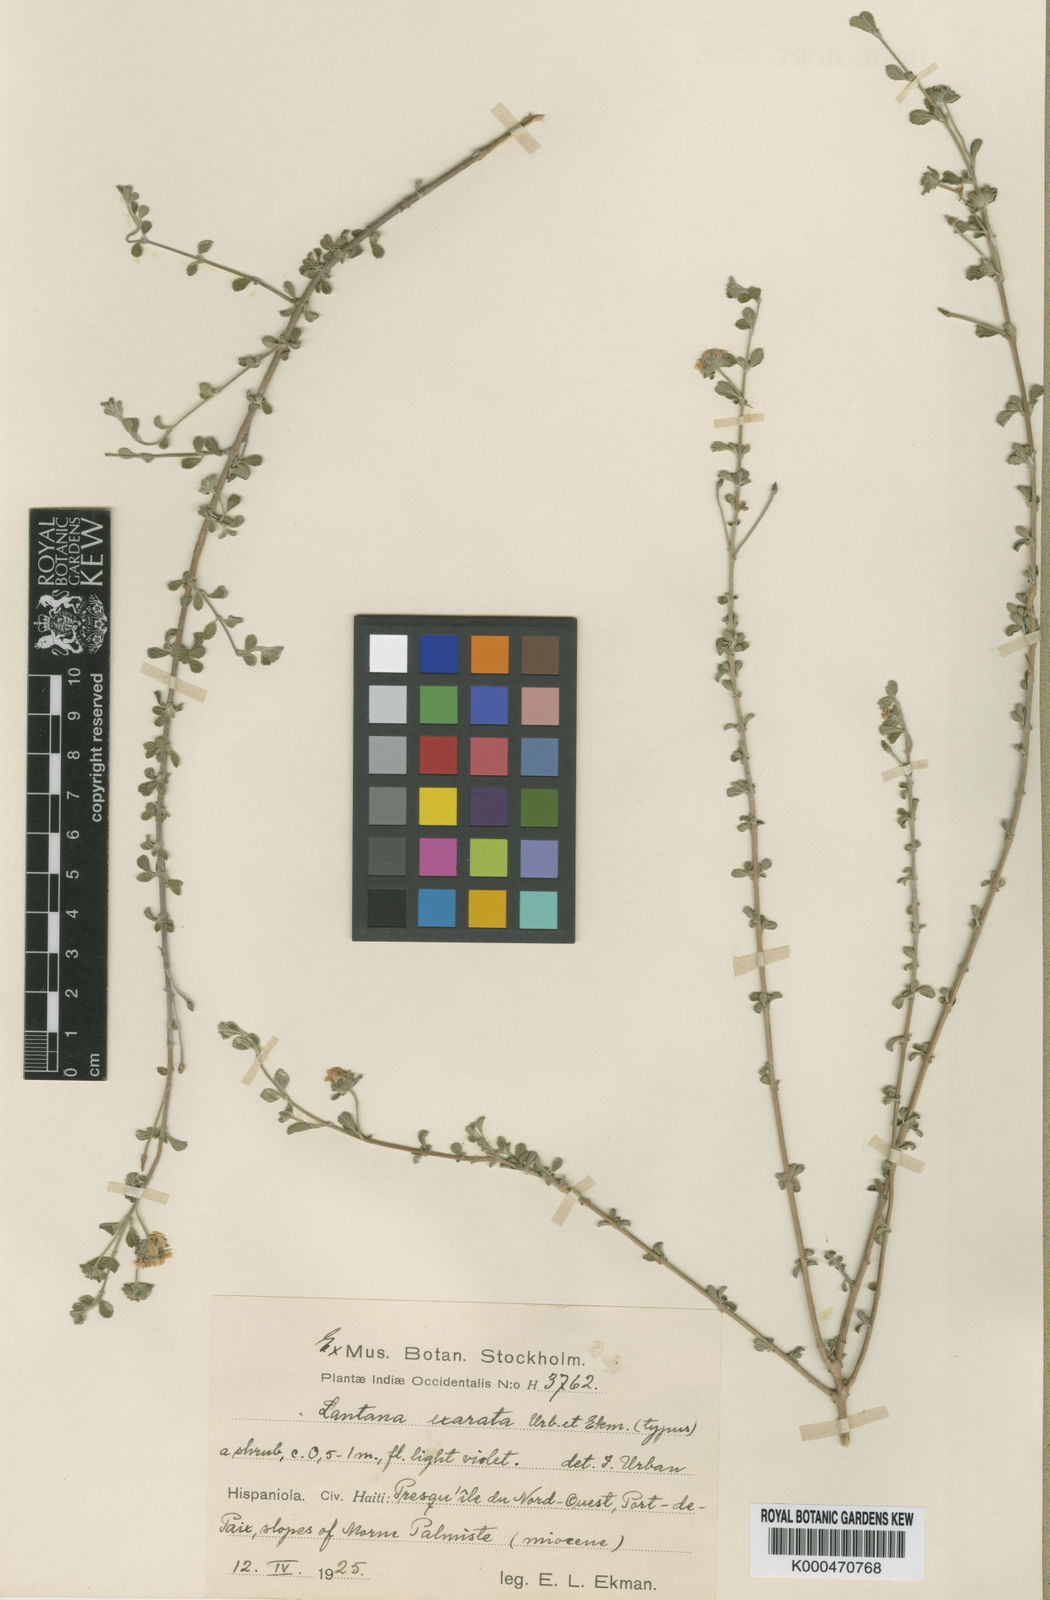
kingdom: Plantae
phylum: Tracheophyta
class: Magnoliopsida
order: Lamiales
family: Verbenaceae
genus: Lantana
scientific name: Lantana exarata
